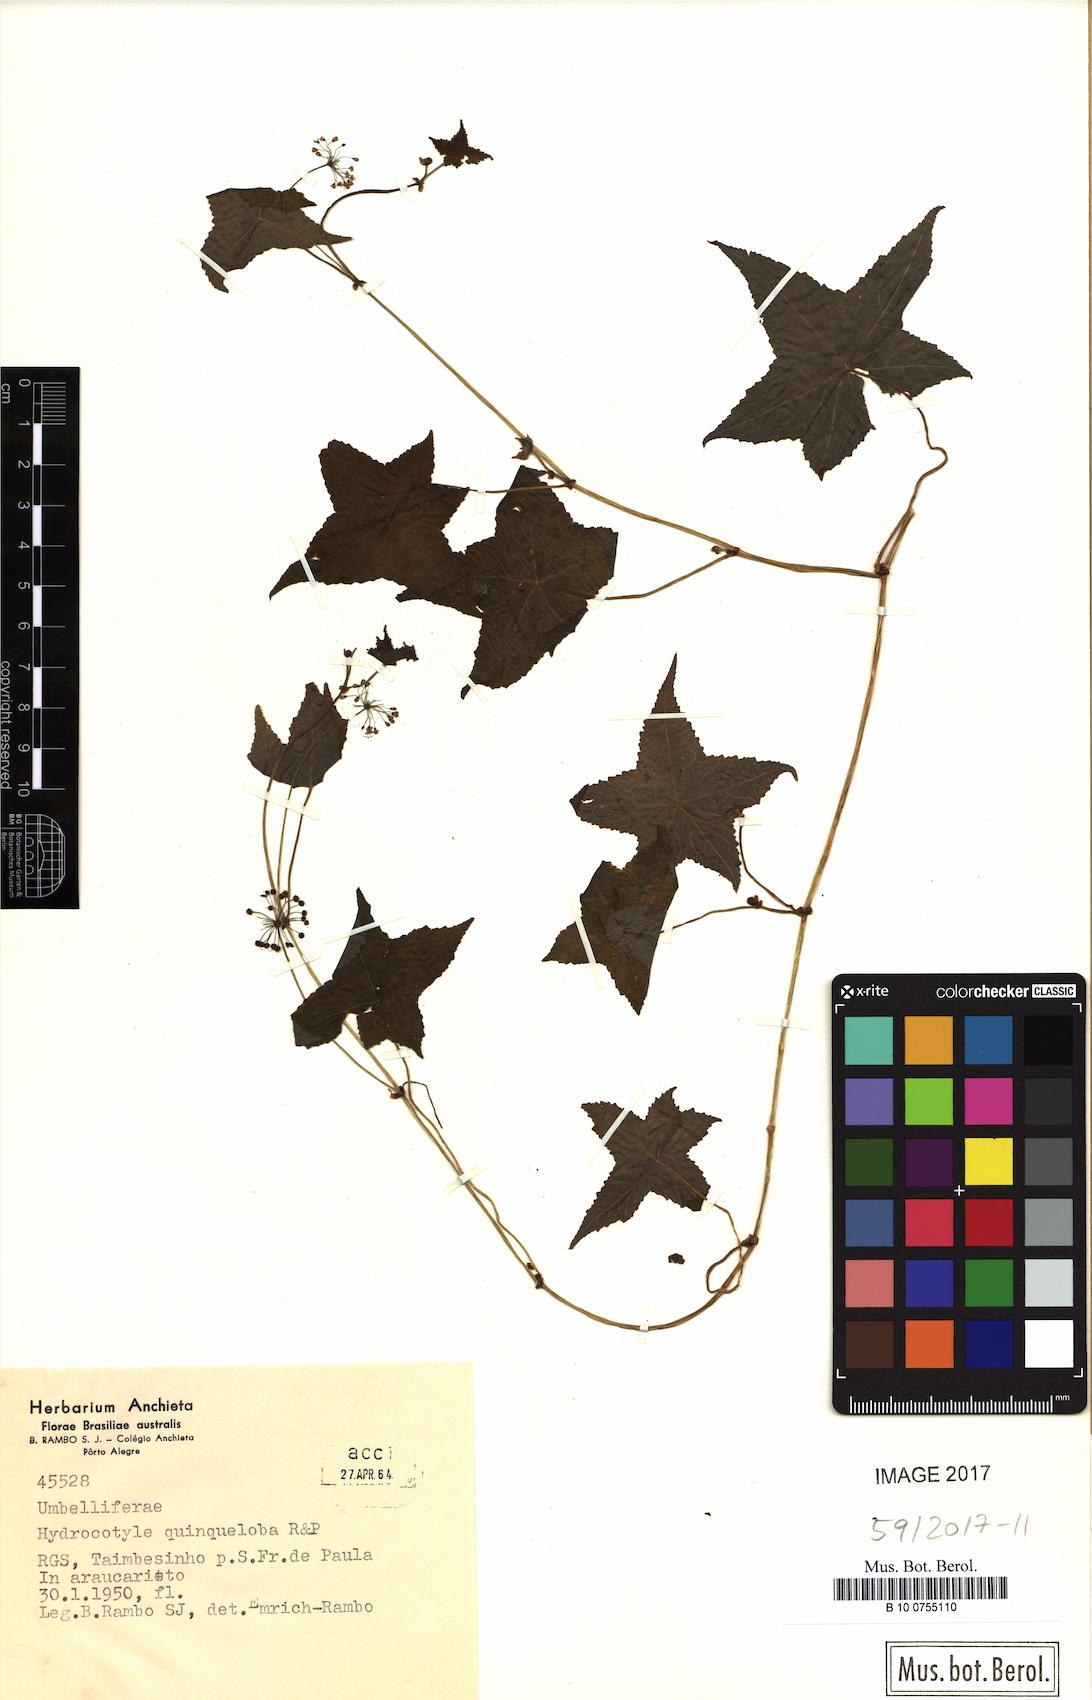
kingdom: Plantae
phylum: Tracheophyta
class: Magnoliopsida
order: Apiales
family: Araliaceae
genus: Hydrocotyle
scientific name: Hydrocotyle quinqueloba
